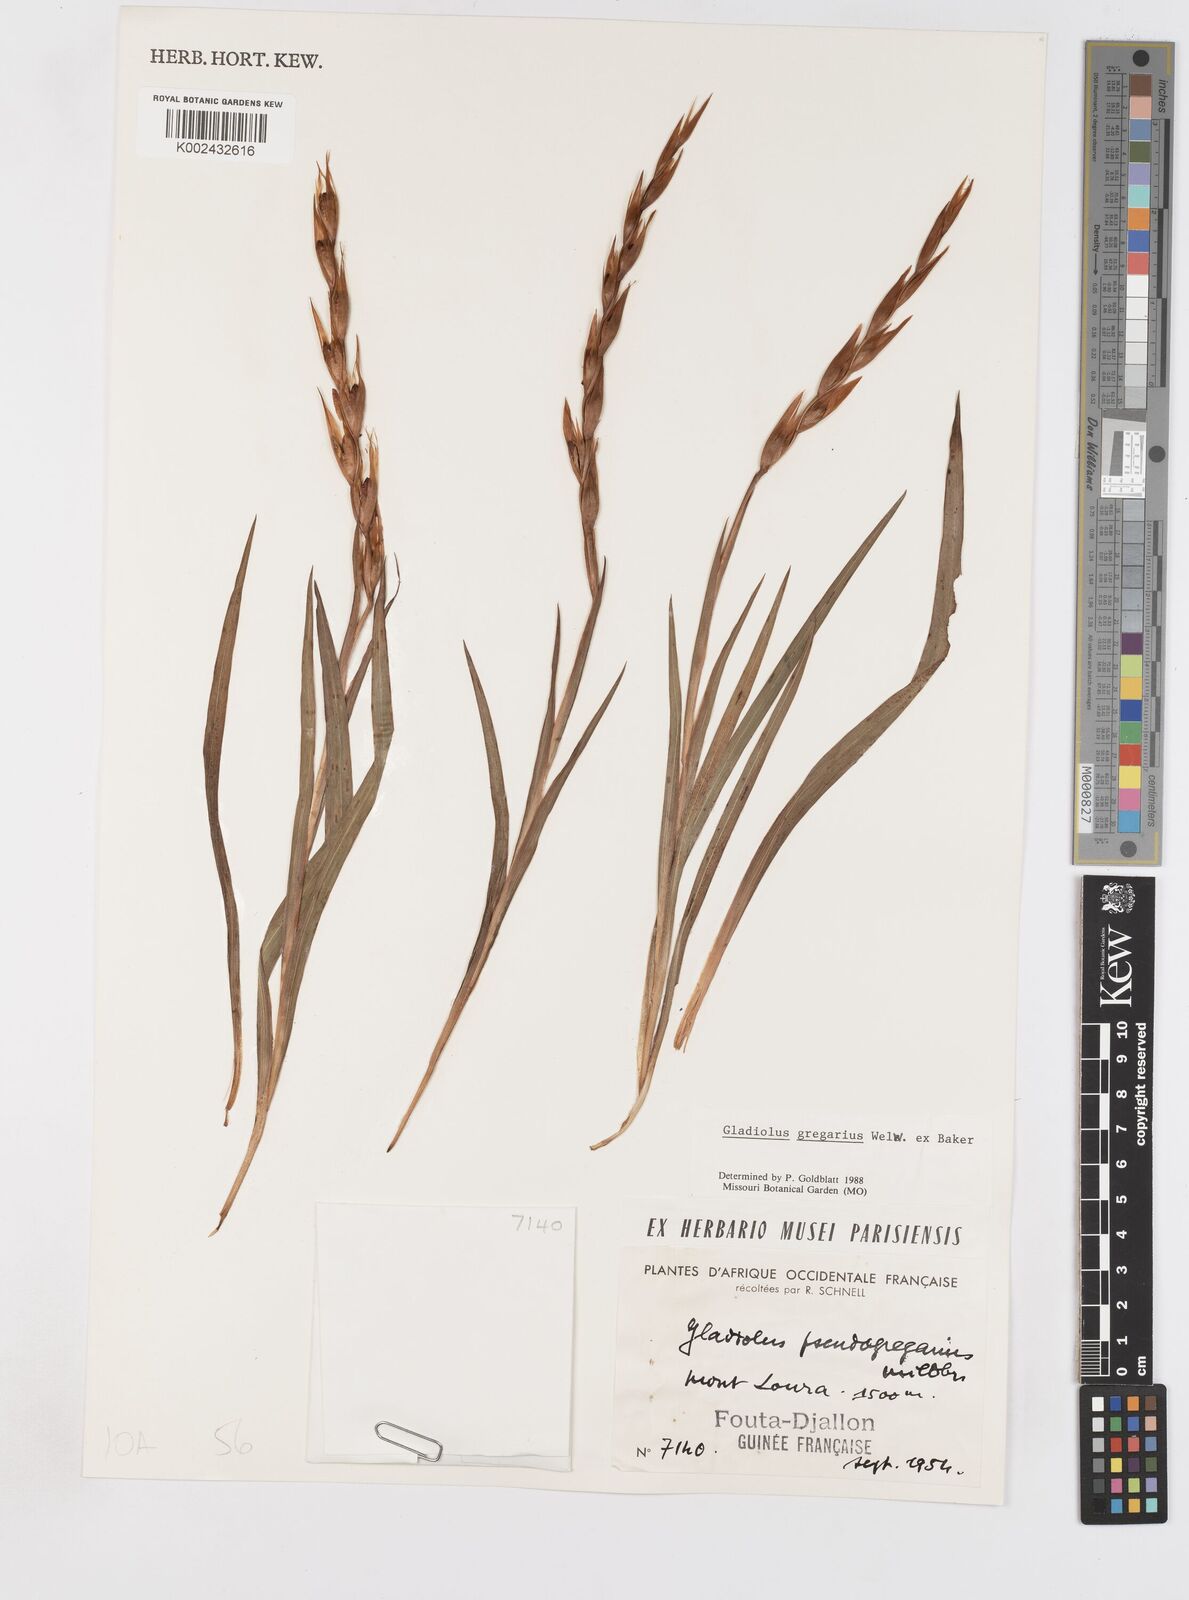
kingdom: Plantae
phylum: Tracheophyta
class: Liliopsida
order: Asparagales
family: Iridaceae
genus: Gladiolus
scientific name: Gladiolus gregarius
